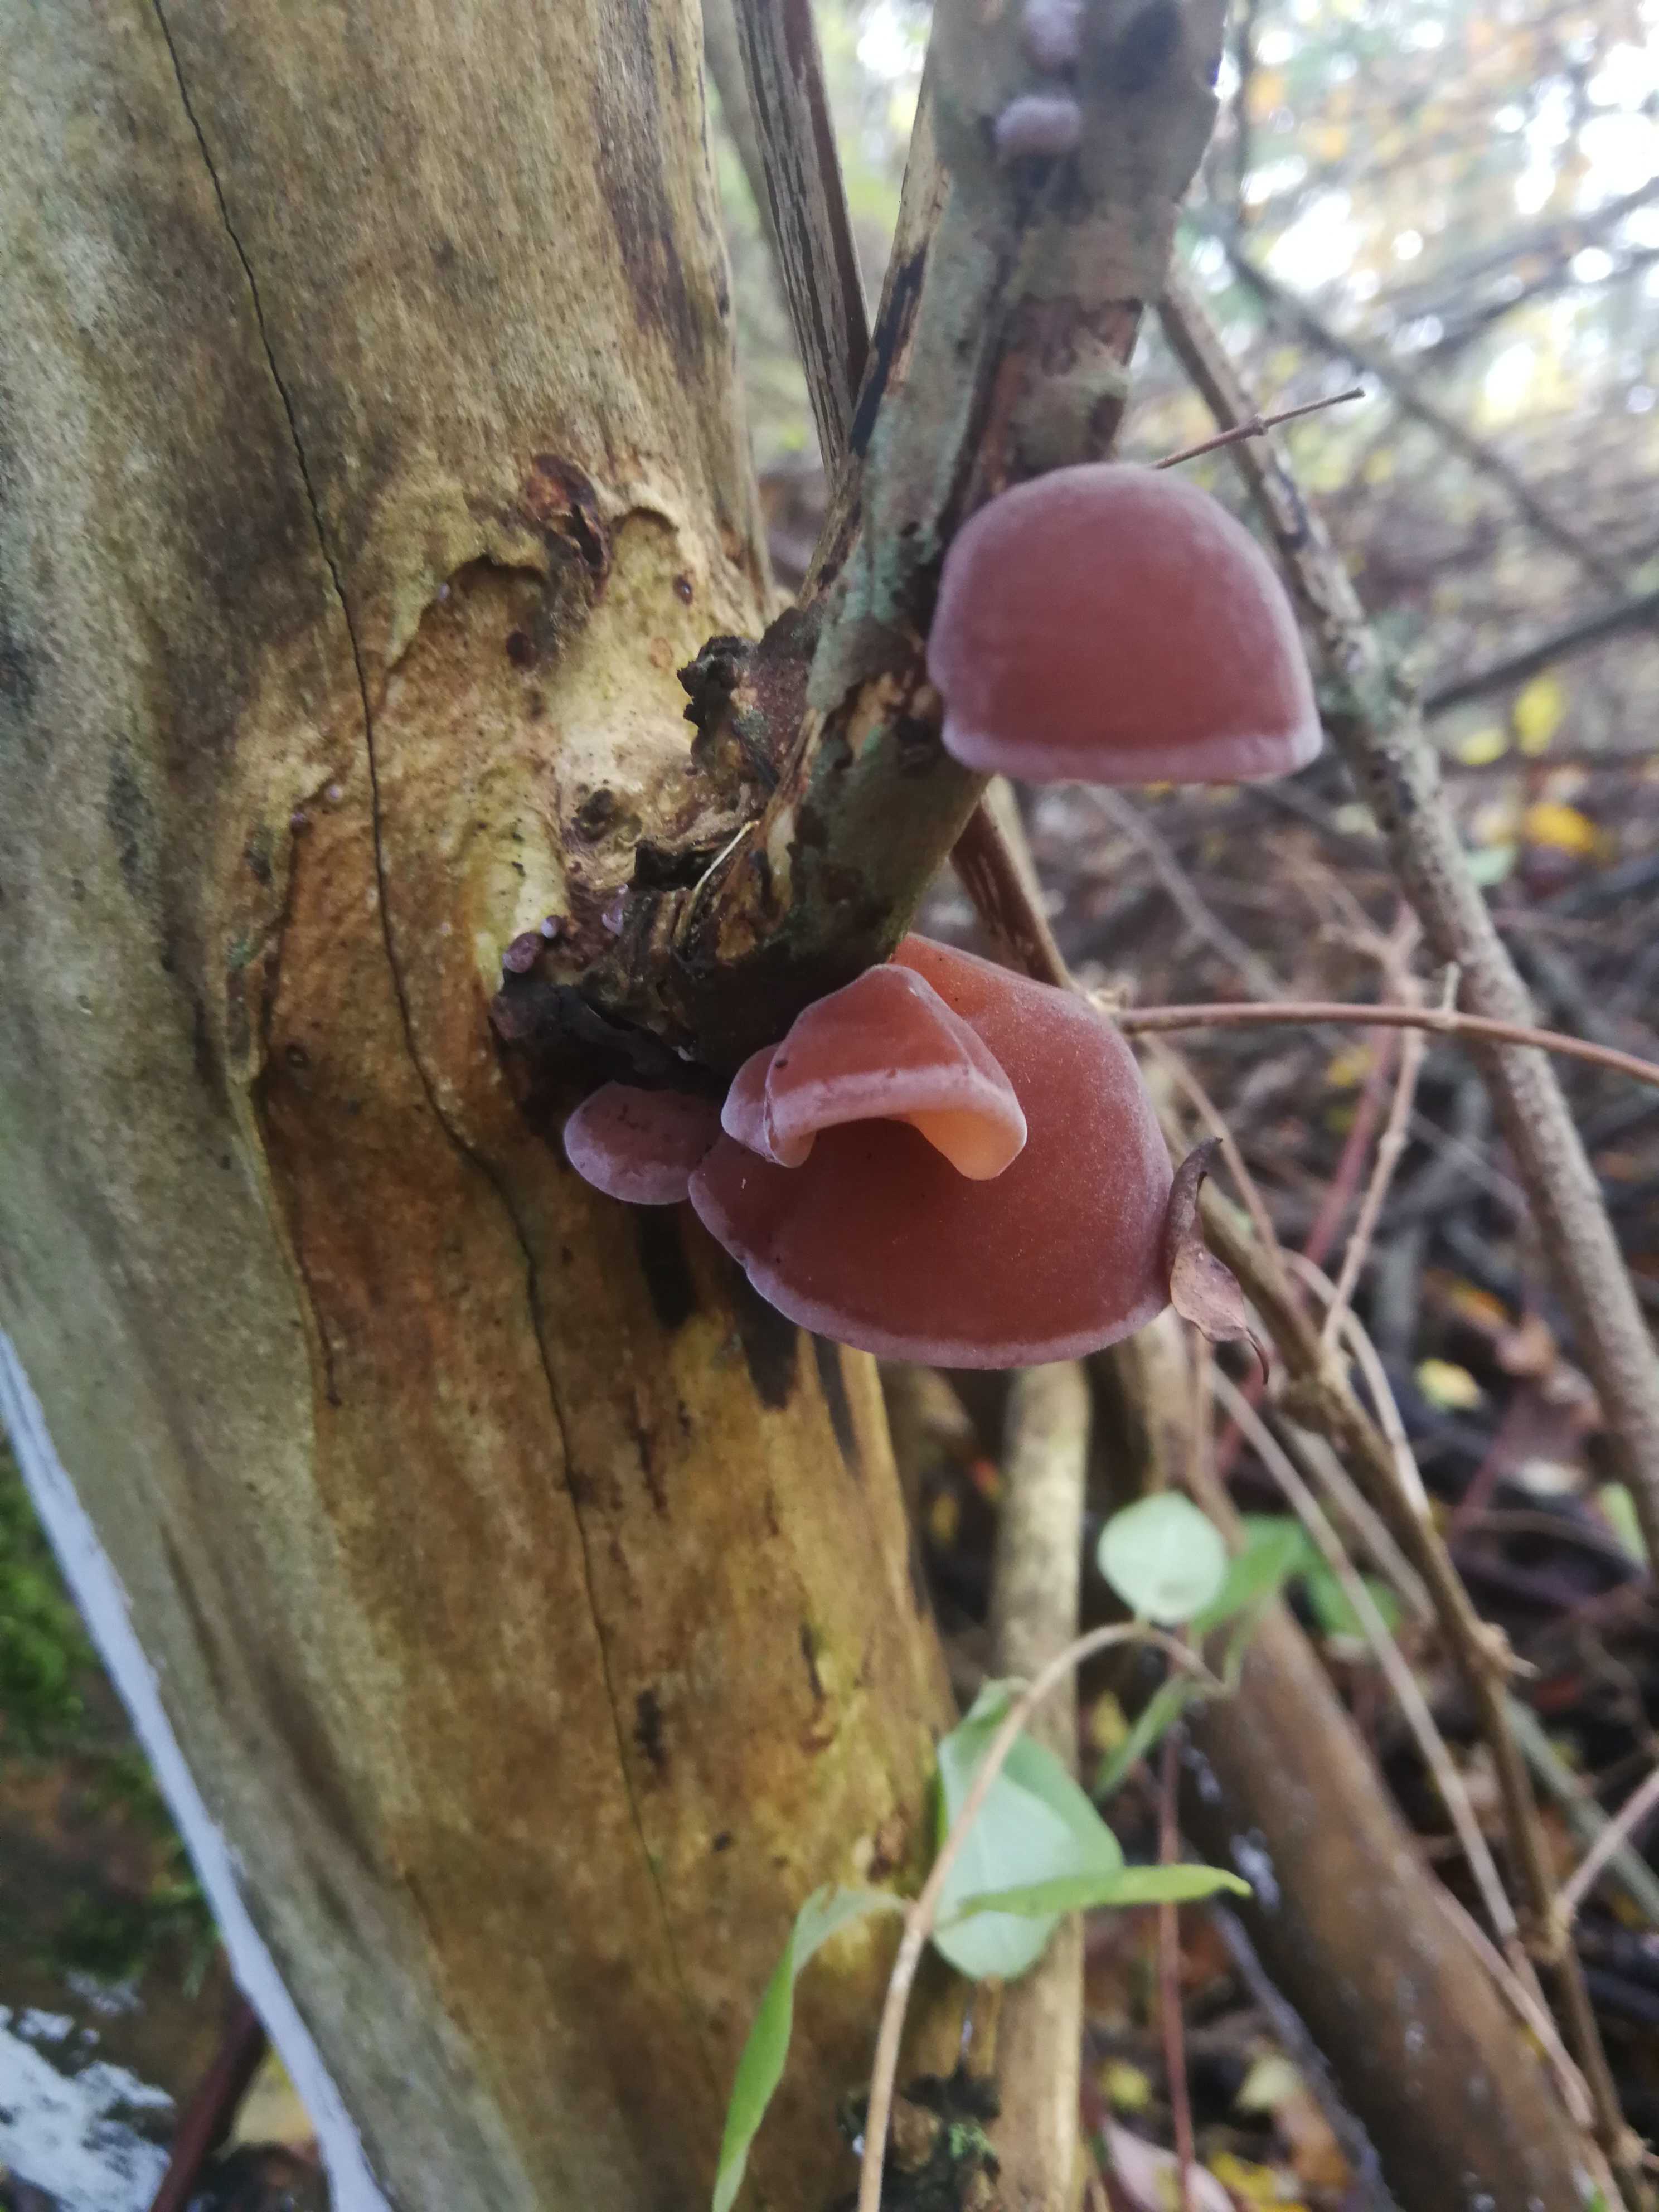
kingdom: Fungi
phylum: Basidiomycota
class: Agaricomycetes
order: Auriculariales
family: Auriculariaceae
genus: Auricularia
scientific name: Auricularia auricula-judae
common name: almindelig judasøre
